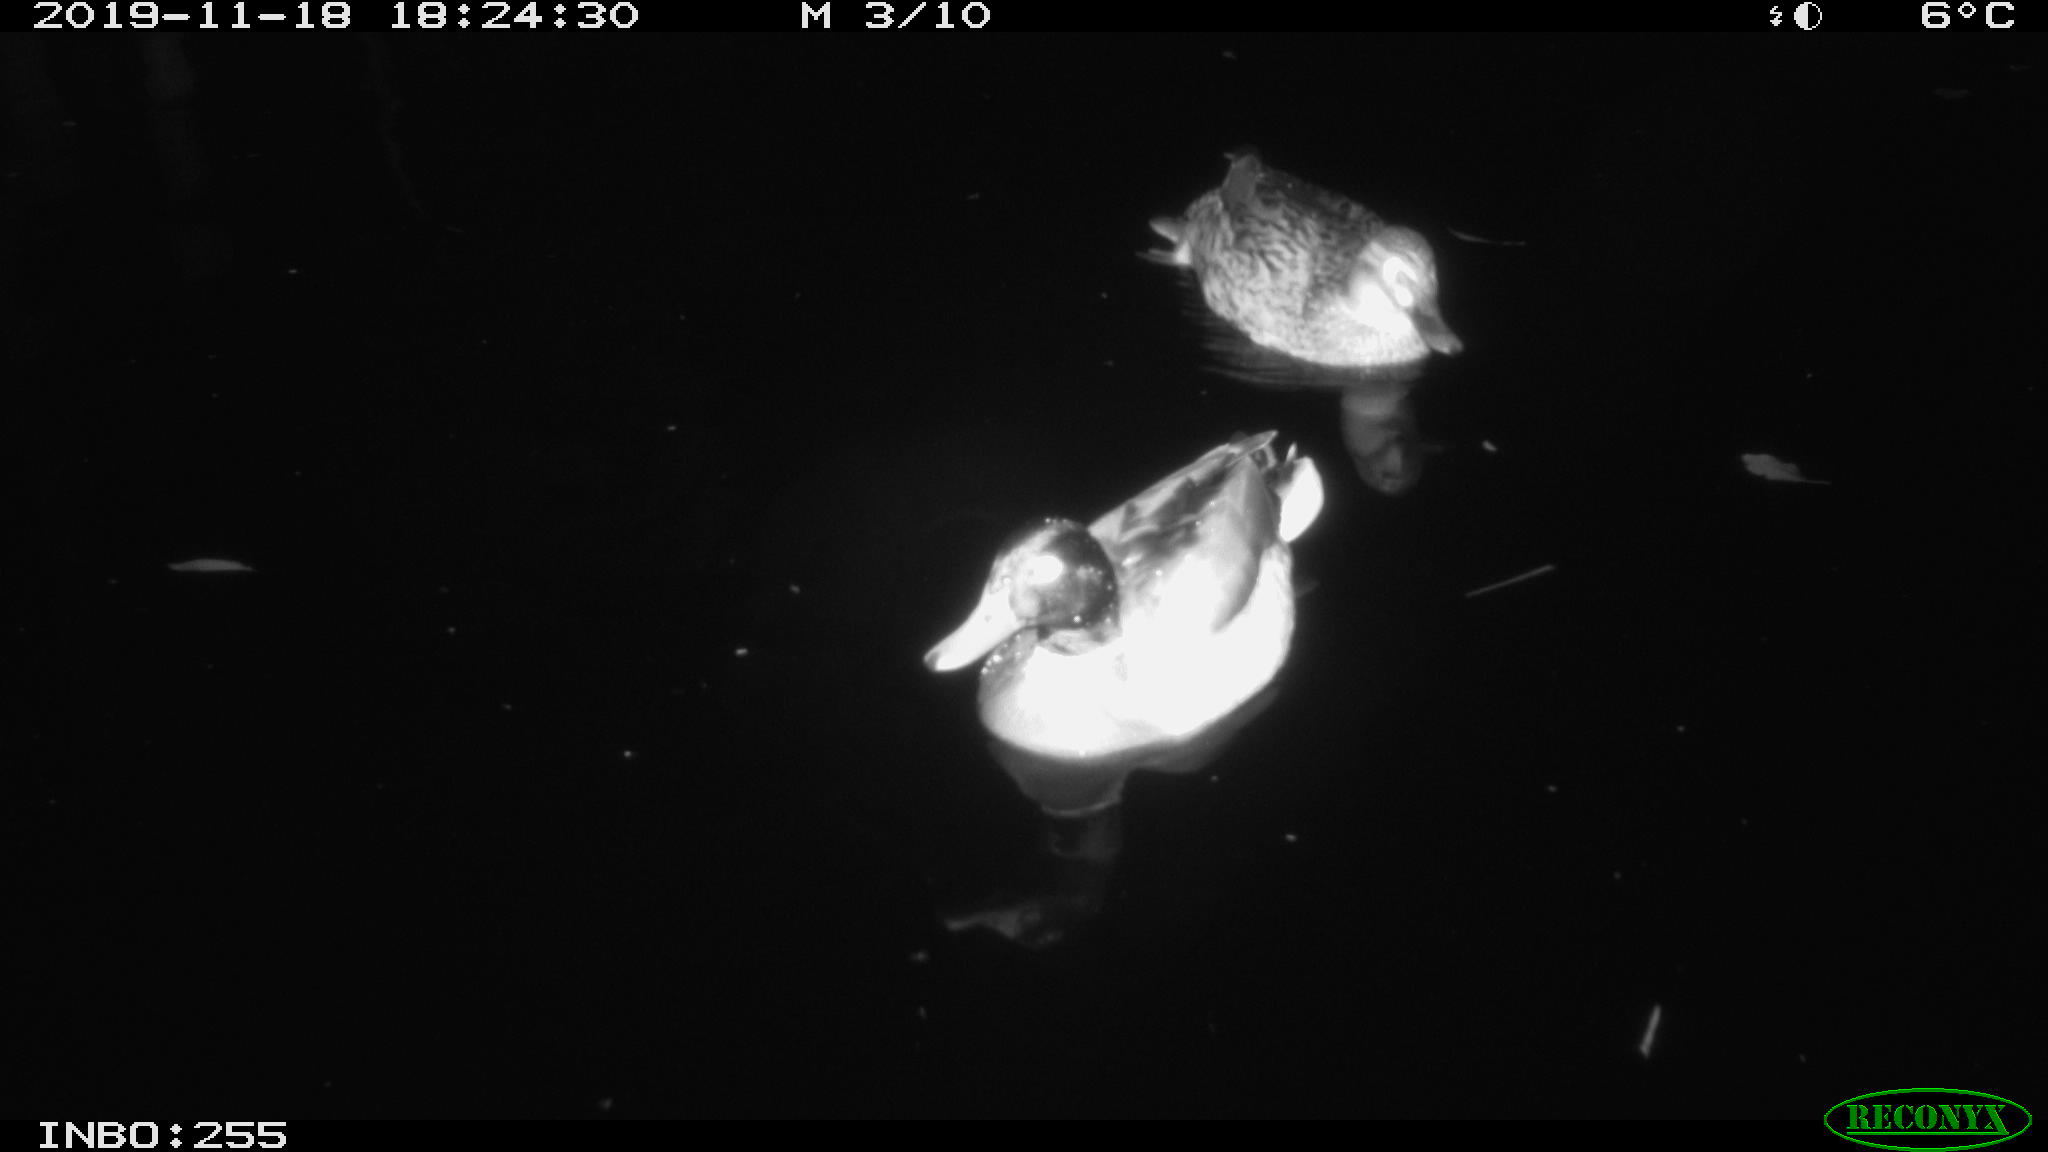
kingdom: Animalia
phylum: Chordata
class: Aves
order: Anseriformes
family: Anatidae
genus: Anas
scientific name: Anas platyrhynchos
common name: Mallard
